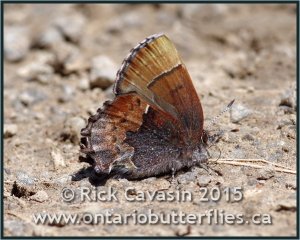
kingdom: Animalia
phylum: Arthropoda
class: Insecta
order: Lepidoptera
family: Lycaenidae
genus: Incisalia
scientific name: Incisalia henrici
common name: Henry's Elfin
